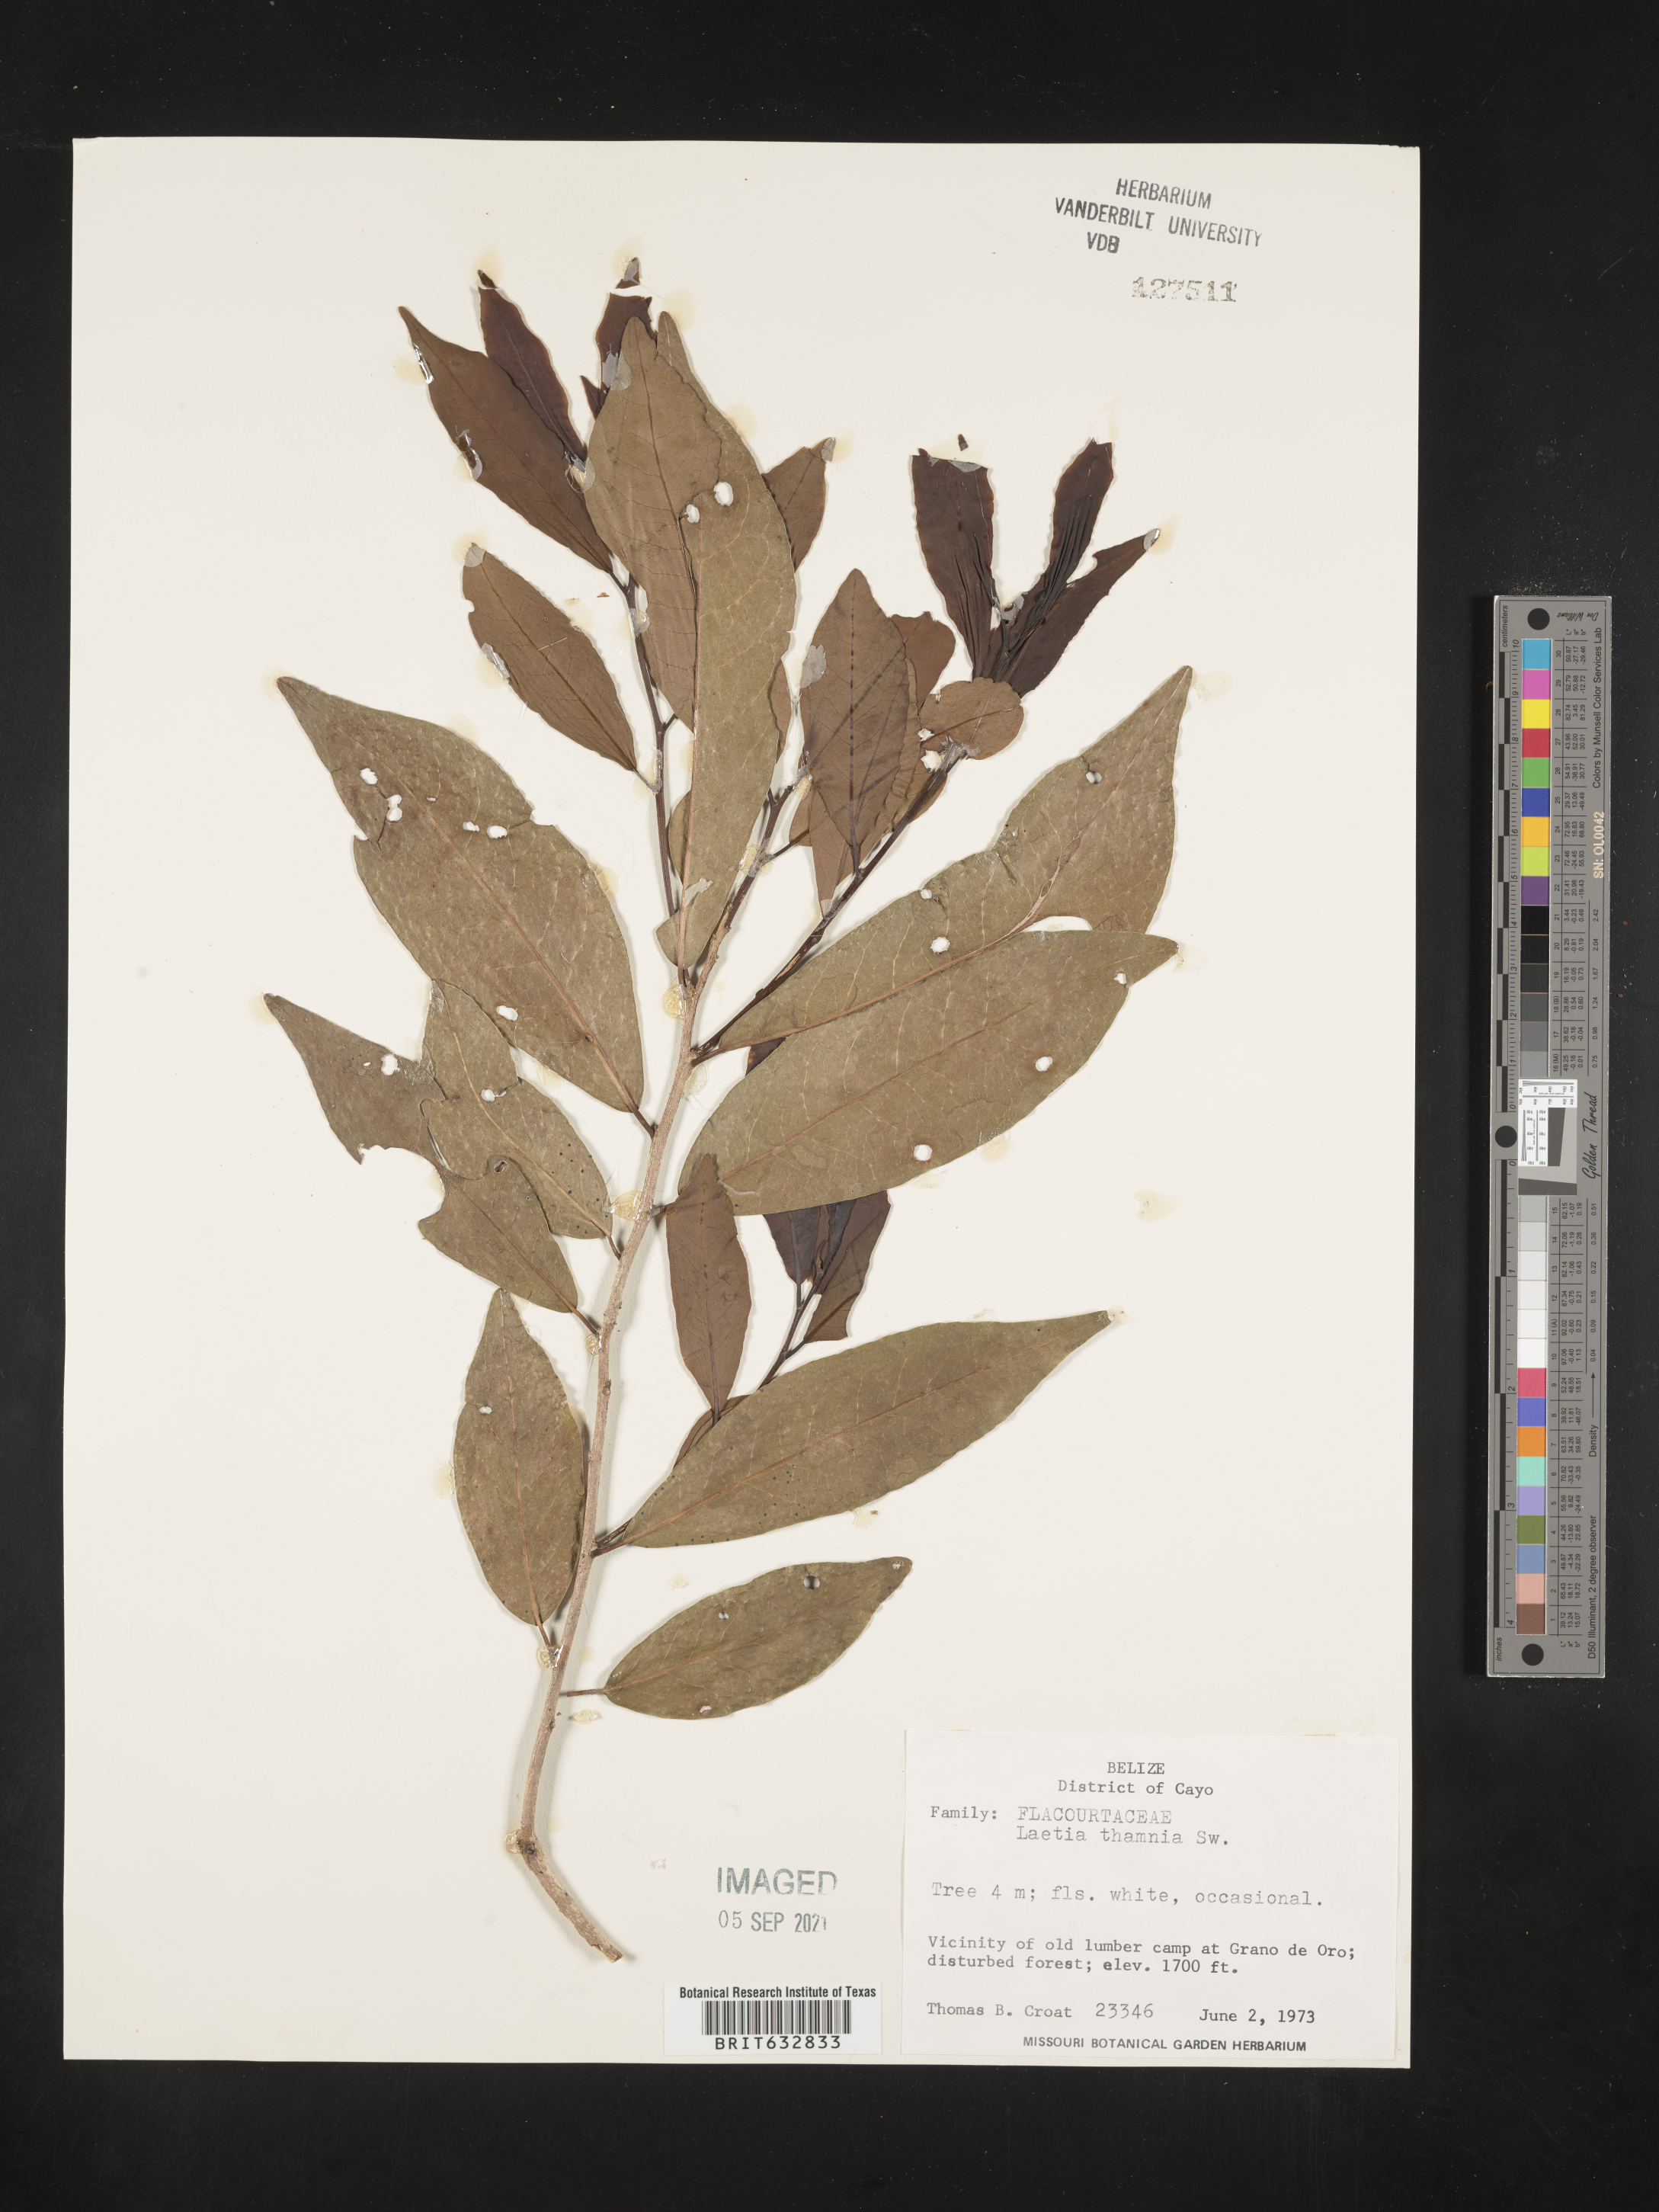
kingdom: Plantae
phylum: Tracheophyta
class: Magnoliopsida
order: Malpighiales
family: Flacourtiaceae
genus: Laetia
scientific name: Laetia
